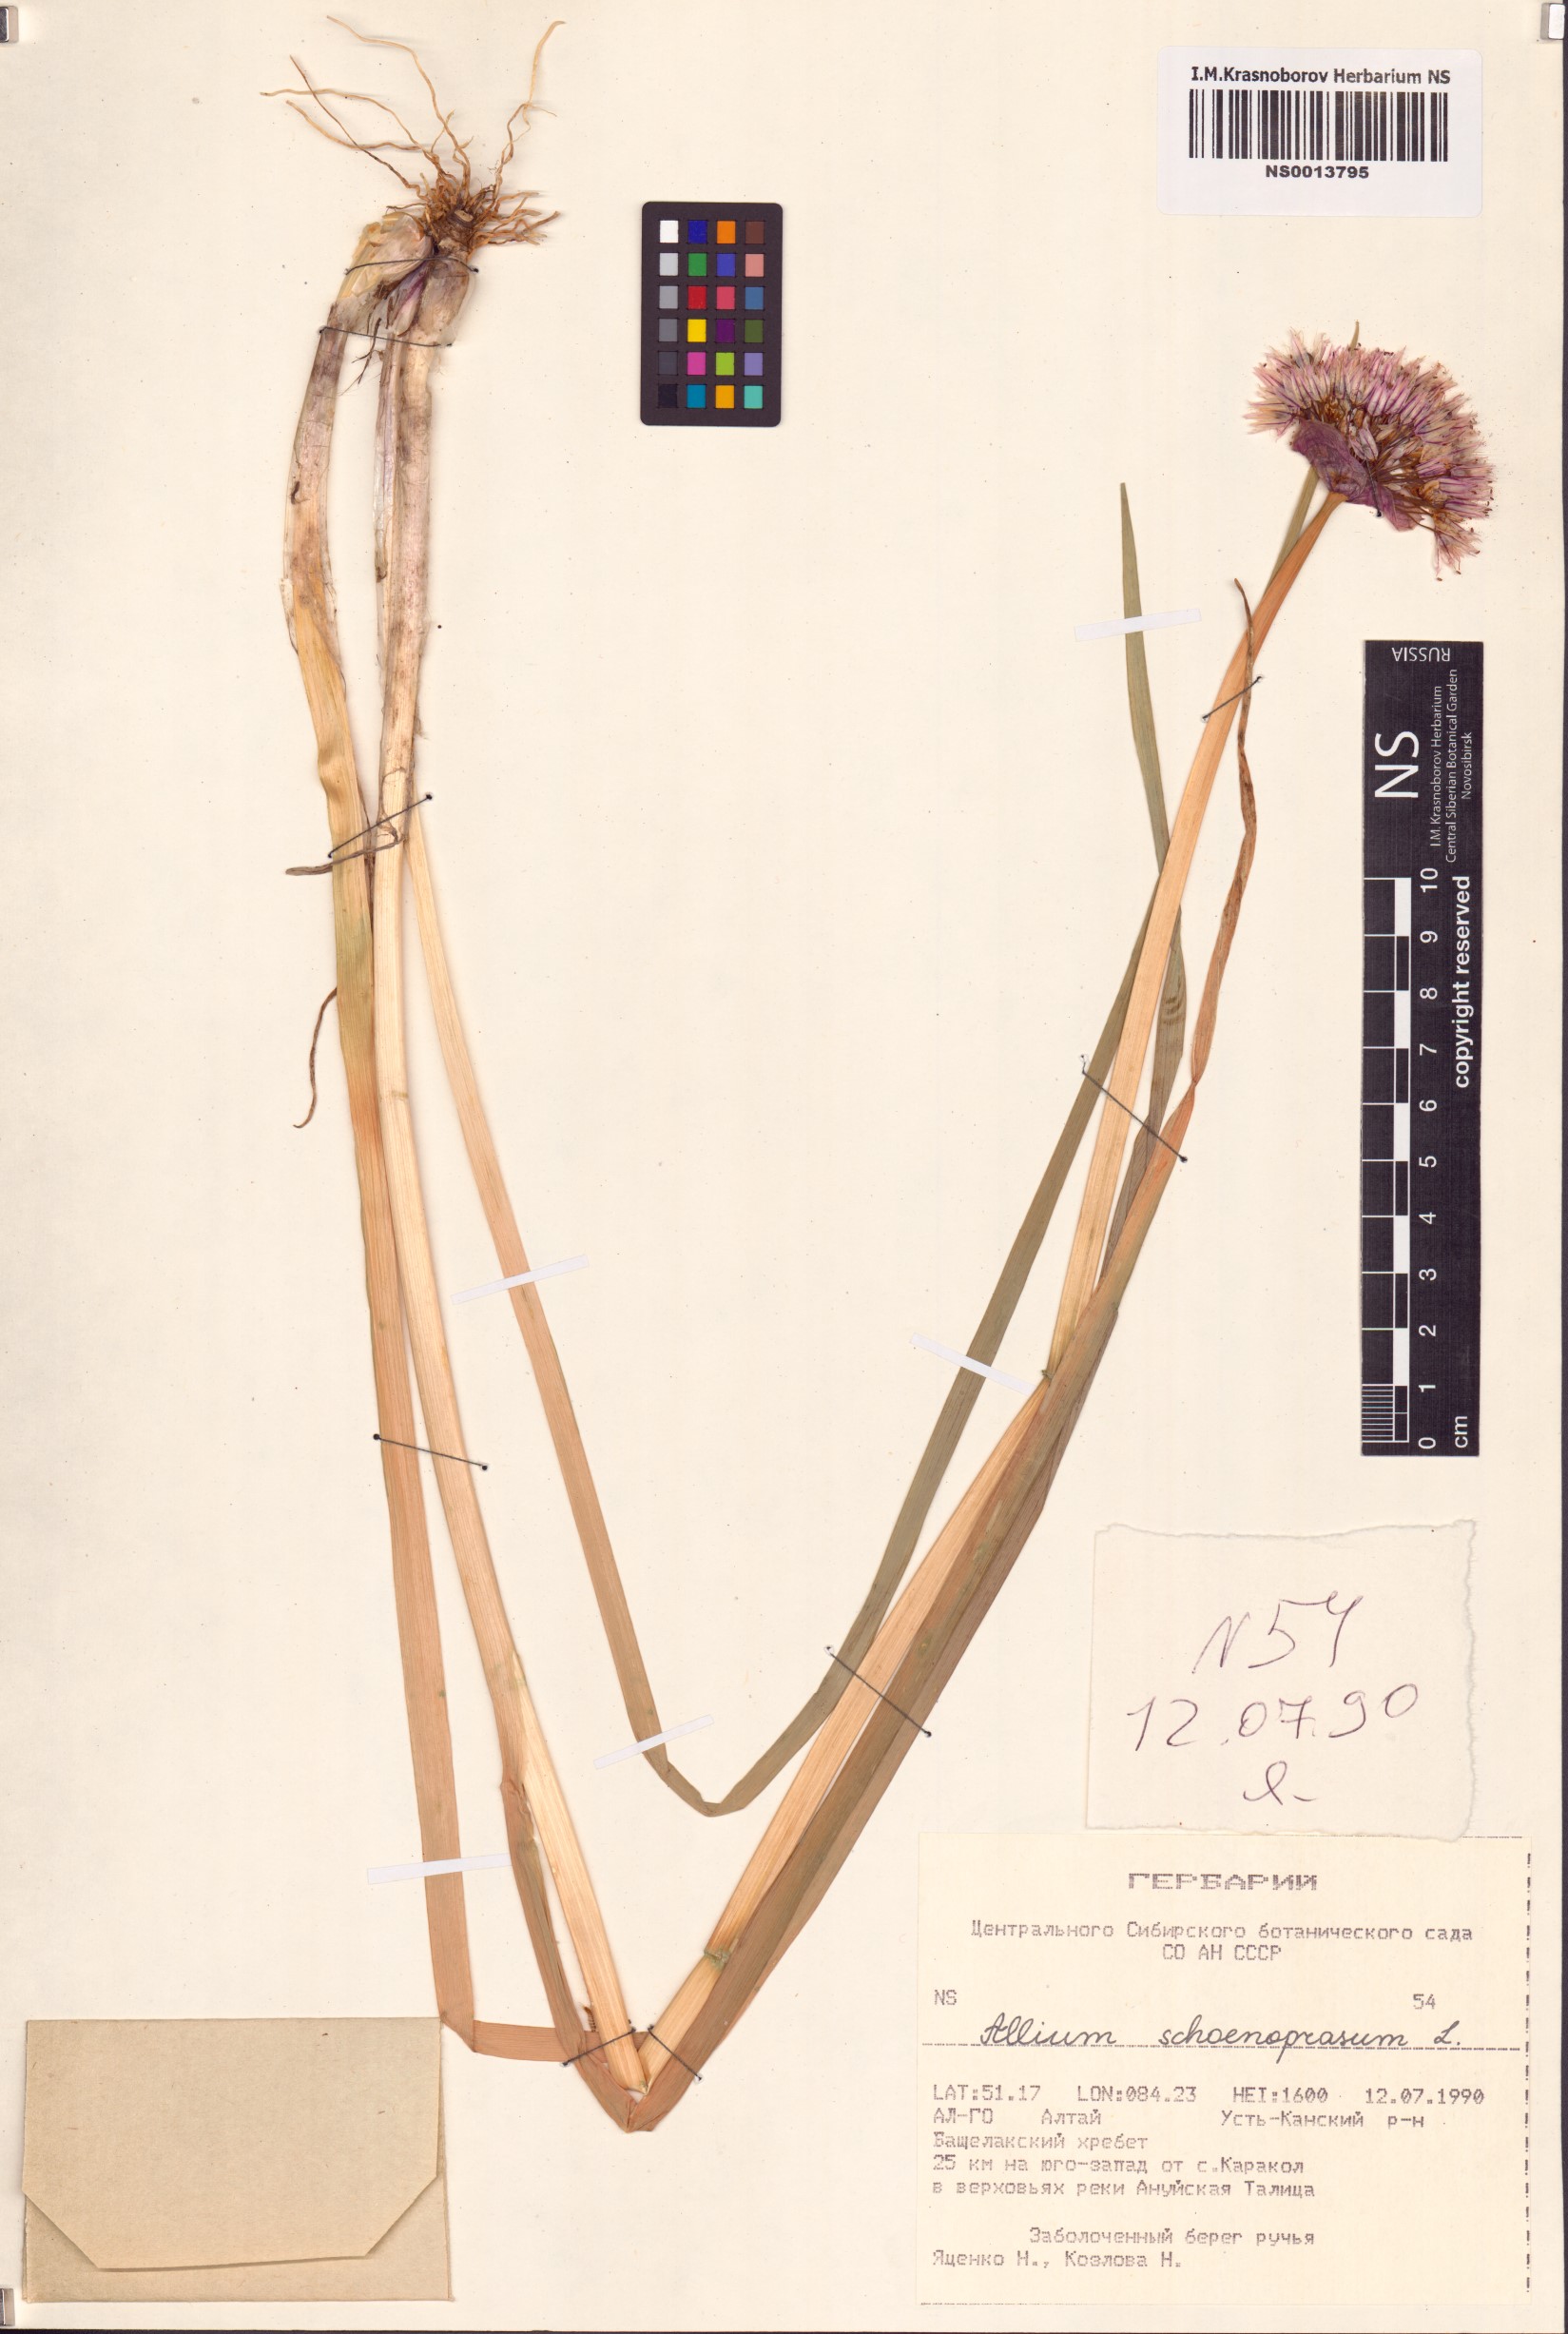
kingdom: Plantae
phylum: Tracheophyta
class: Liliopsida
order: Asparagales
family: Amaryllidaceae
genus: Allium
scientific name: Allium schoenoprasum
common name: Chives
